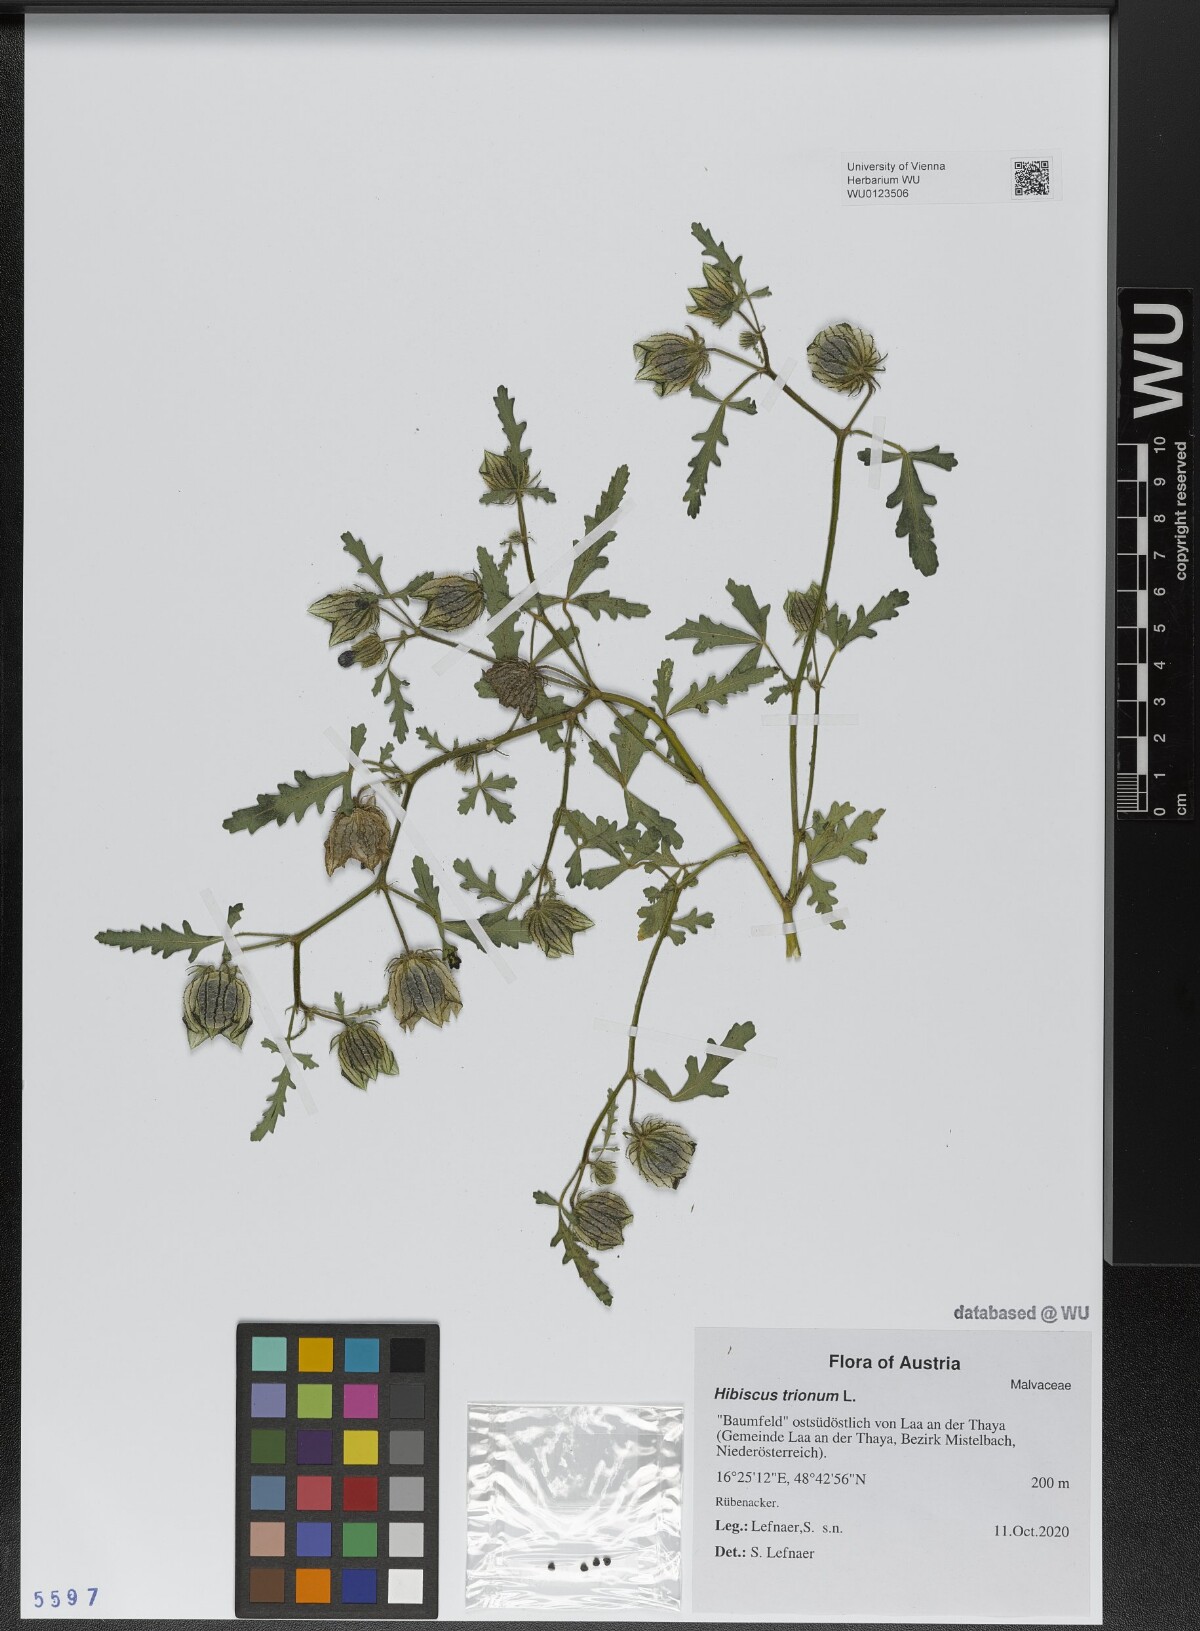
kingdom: Plantae
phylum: Tracheophyta
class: Magnoliopsida
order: Malvales
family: Malvaceae
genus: Hibiscus
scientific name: Hibiscus trionum
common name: Bladder ketmia
